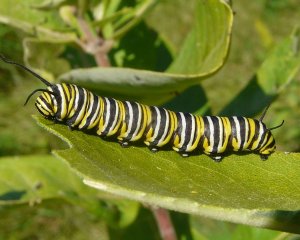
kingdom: Animalia
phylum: Arthropoda
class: Insecta
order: Lepidoptera
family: Nymphalidae
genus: Danaus
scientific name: Danaus plexippus
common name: Monarch
